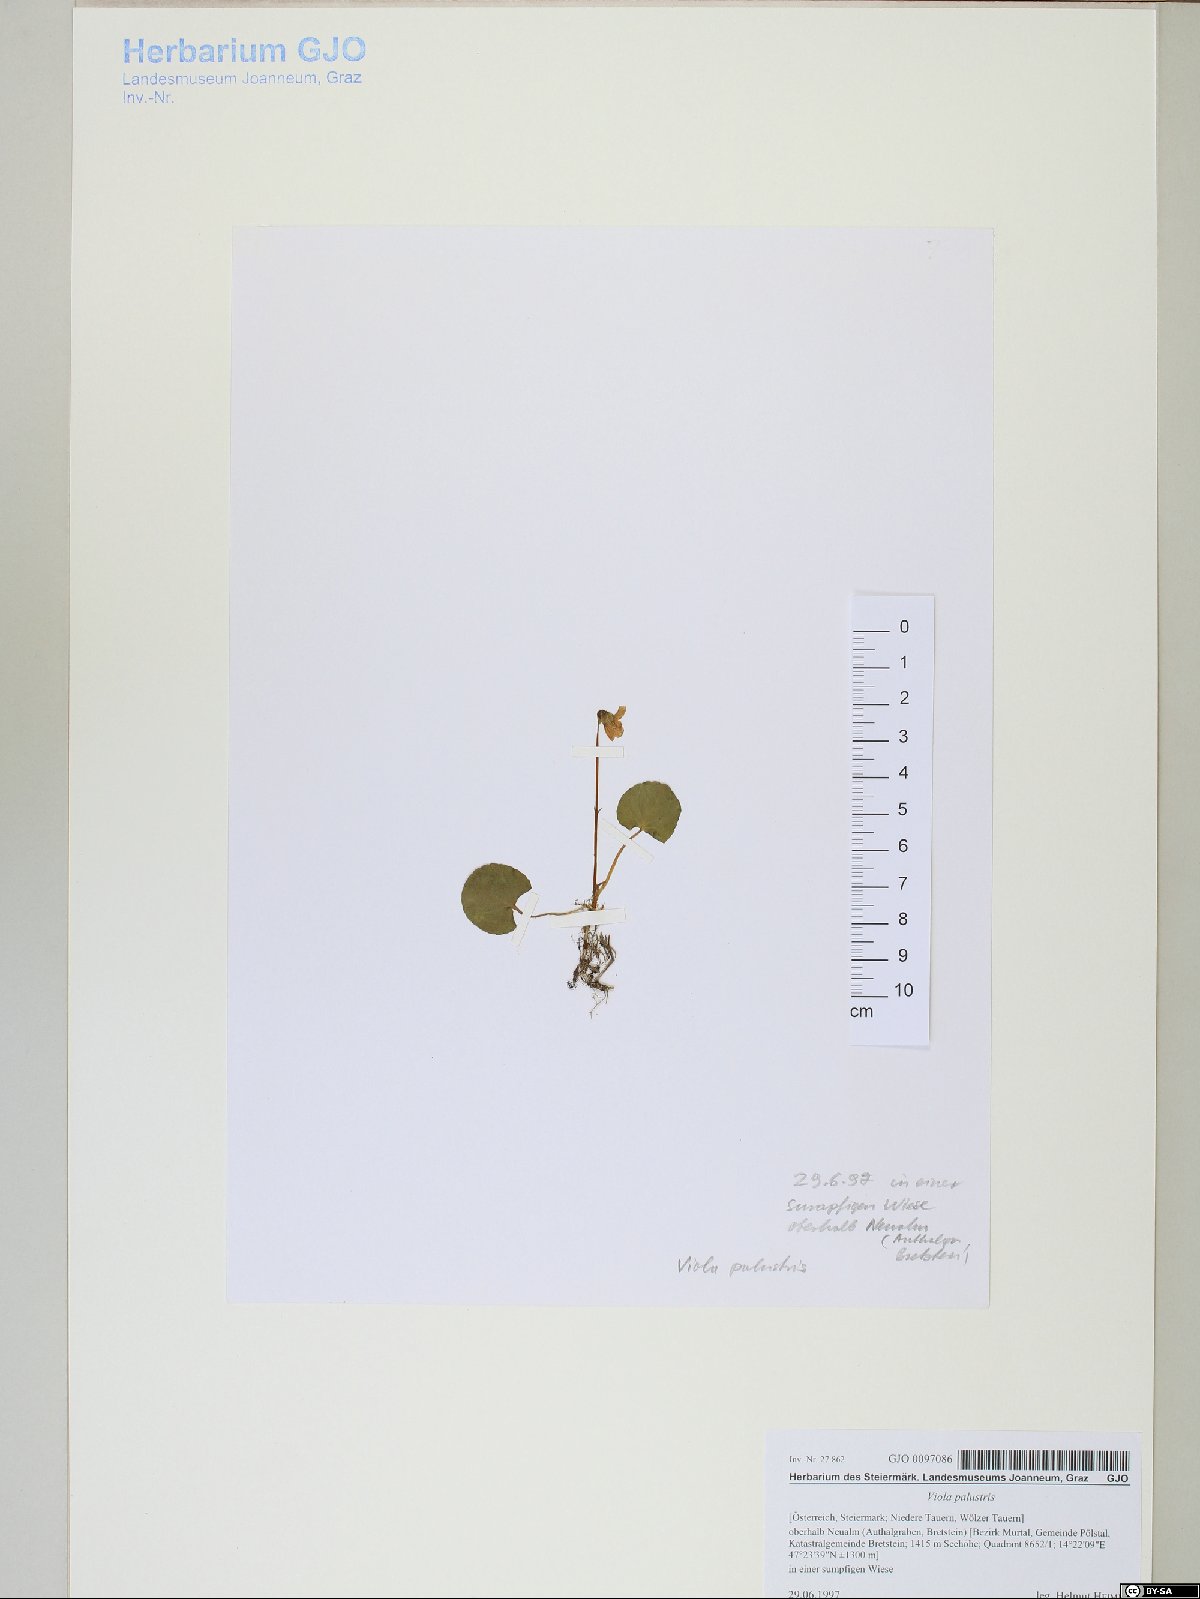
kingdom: Plantae
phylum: Tracheophyta
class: Magnoliopsida
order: Malpighiales
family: Violaceae
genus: Viola
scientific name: Viola palustris
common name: Marsh violet
